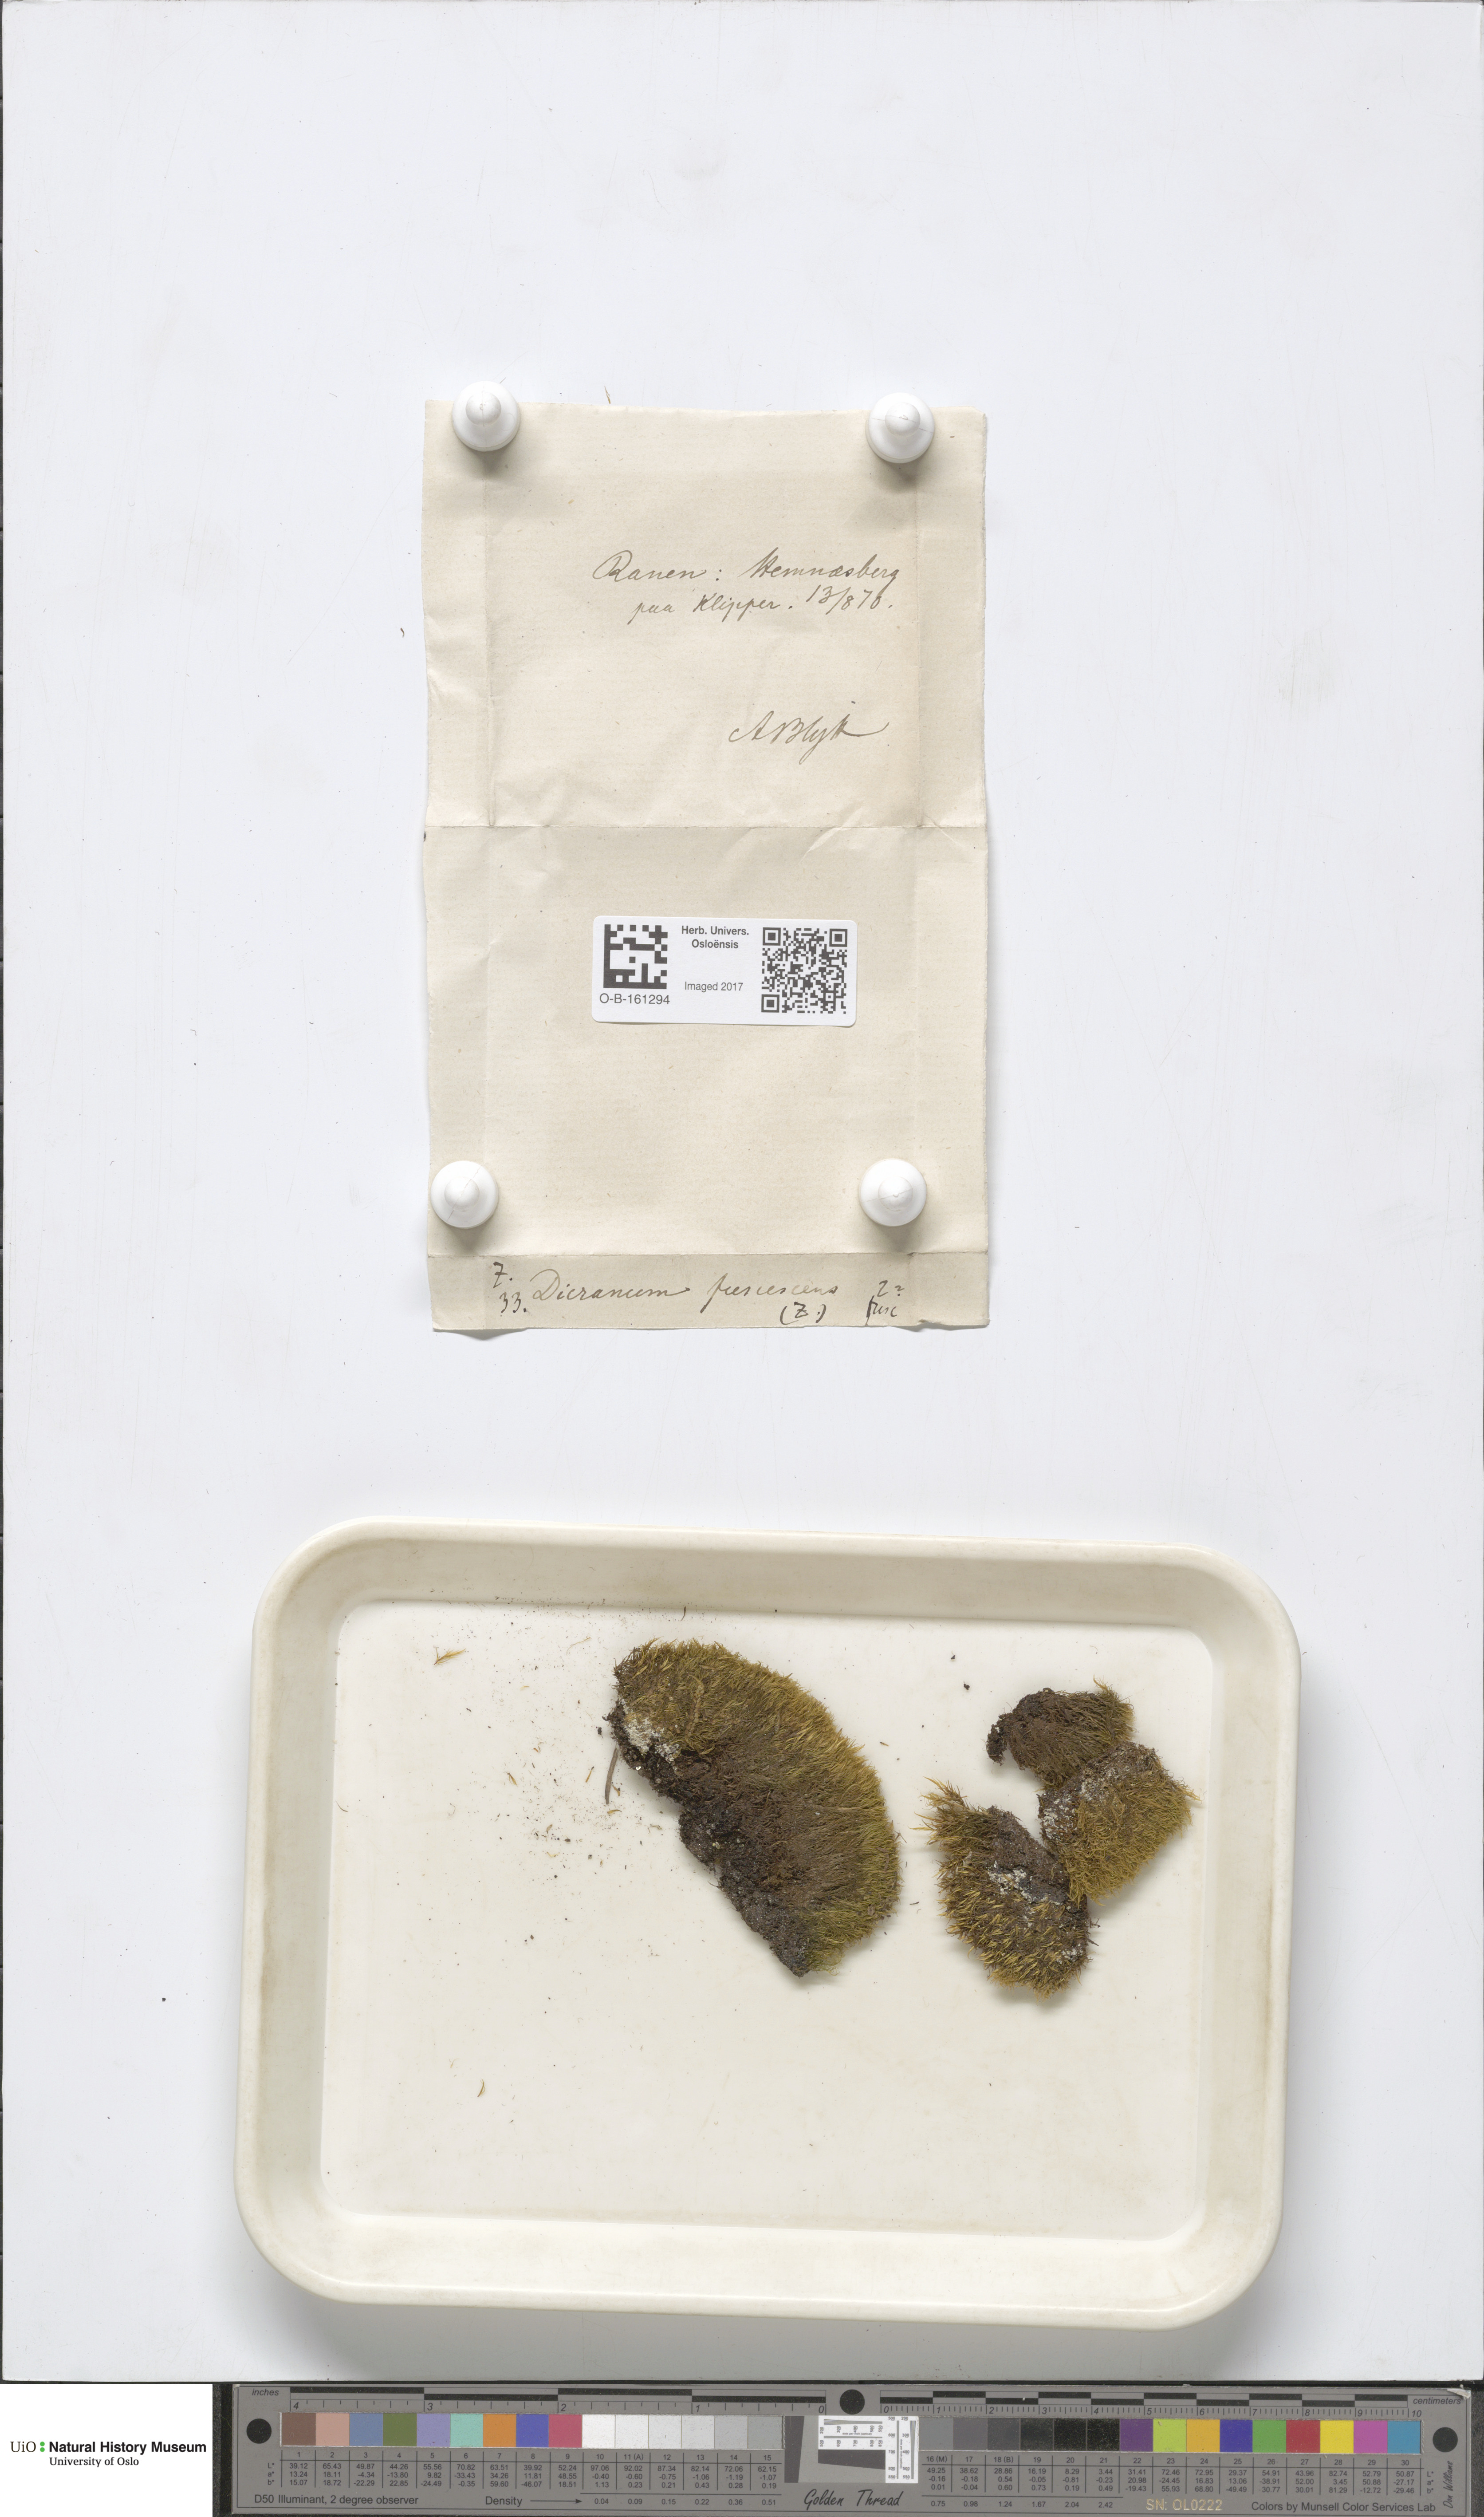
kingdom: Plantae
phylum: Bryophyta
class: Bryopsida
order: Dicranales
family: Dicranaceae
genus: Dicranum
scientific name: Dicranum fuscescens
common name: Curly heron's-bill moss
